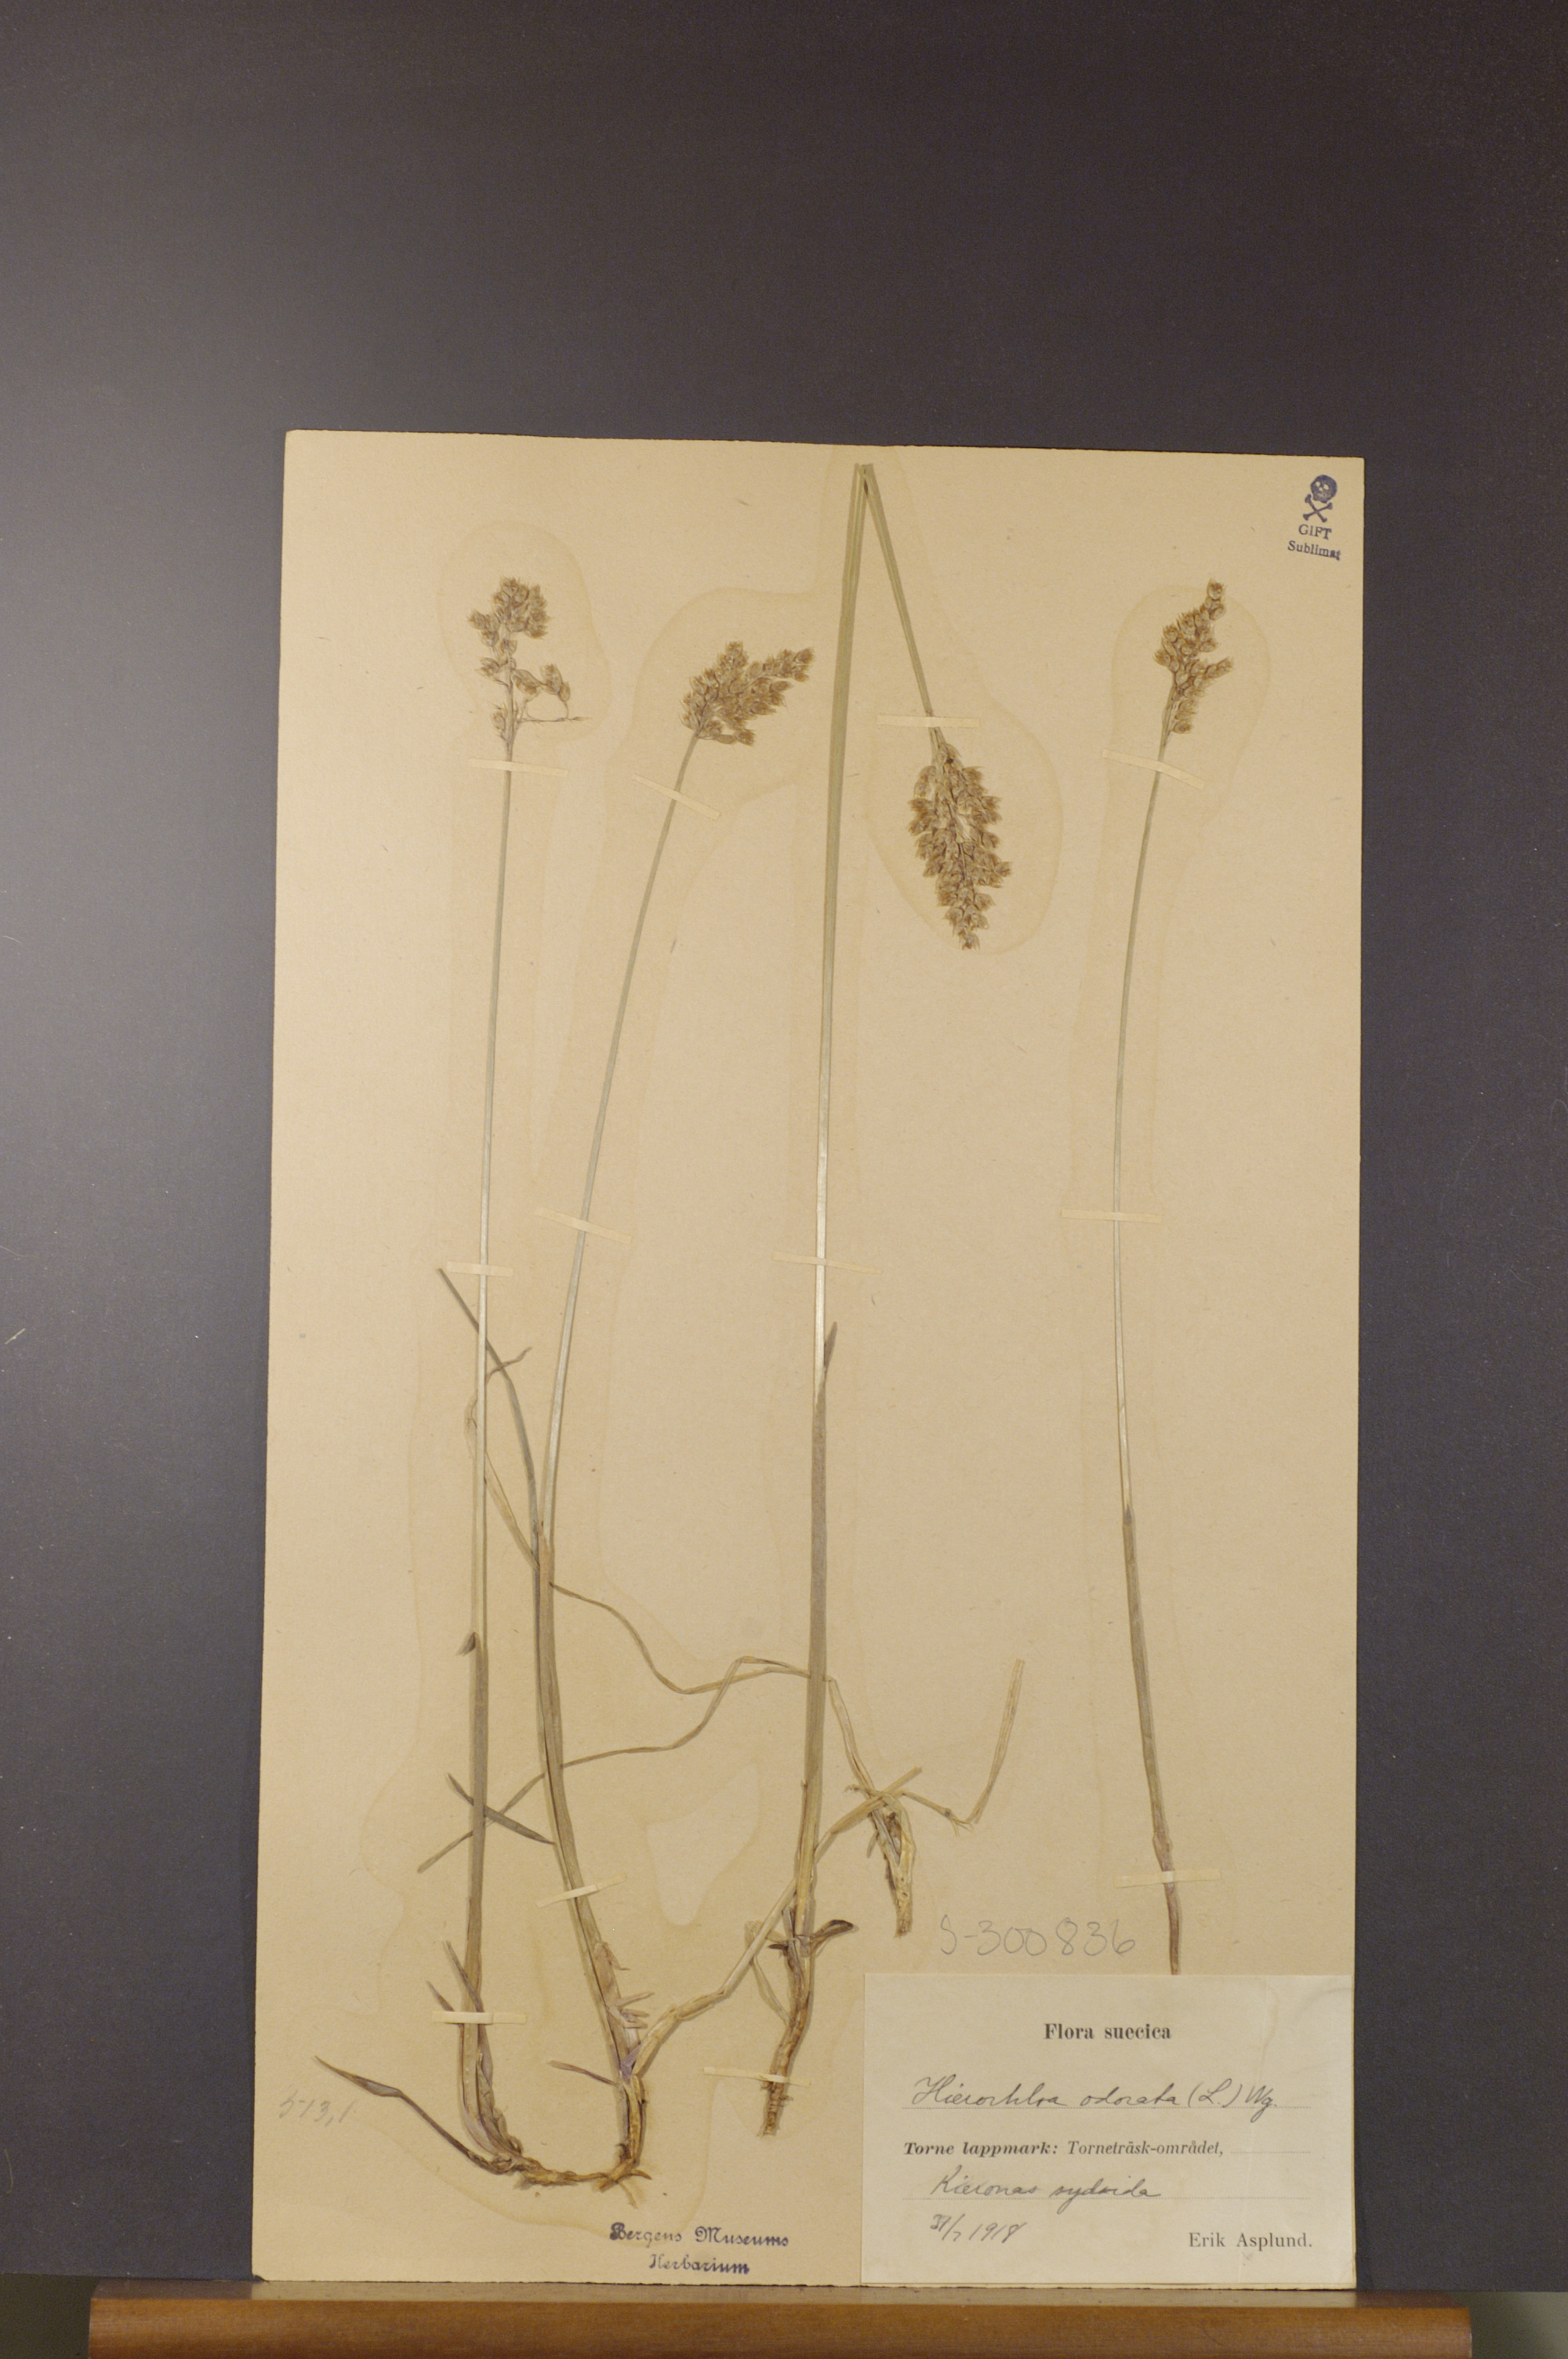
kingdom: Plantae
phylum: Tracheophyta
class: Liliopsida
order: Poales
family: Poaceae
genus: Anthoxanthum
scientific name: Anthoxanthum nitens
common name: Holy grass
